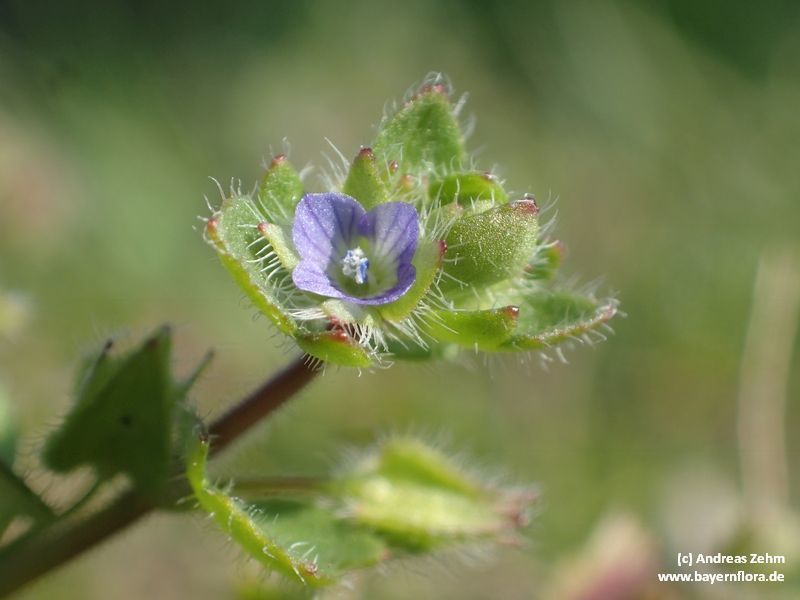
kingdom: Plantae
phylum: Tracheophyta
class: Magnoliopsida
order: Lamiales
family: Plantaginaceae
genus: Veronica
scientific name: Veronica sublobata
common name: False ivy-leaved speedwell
